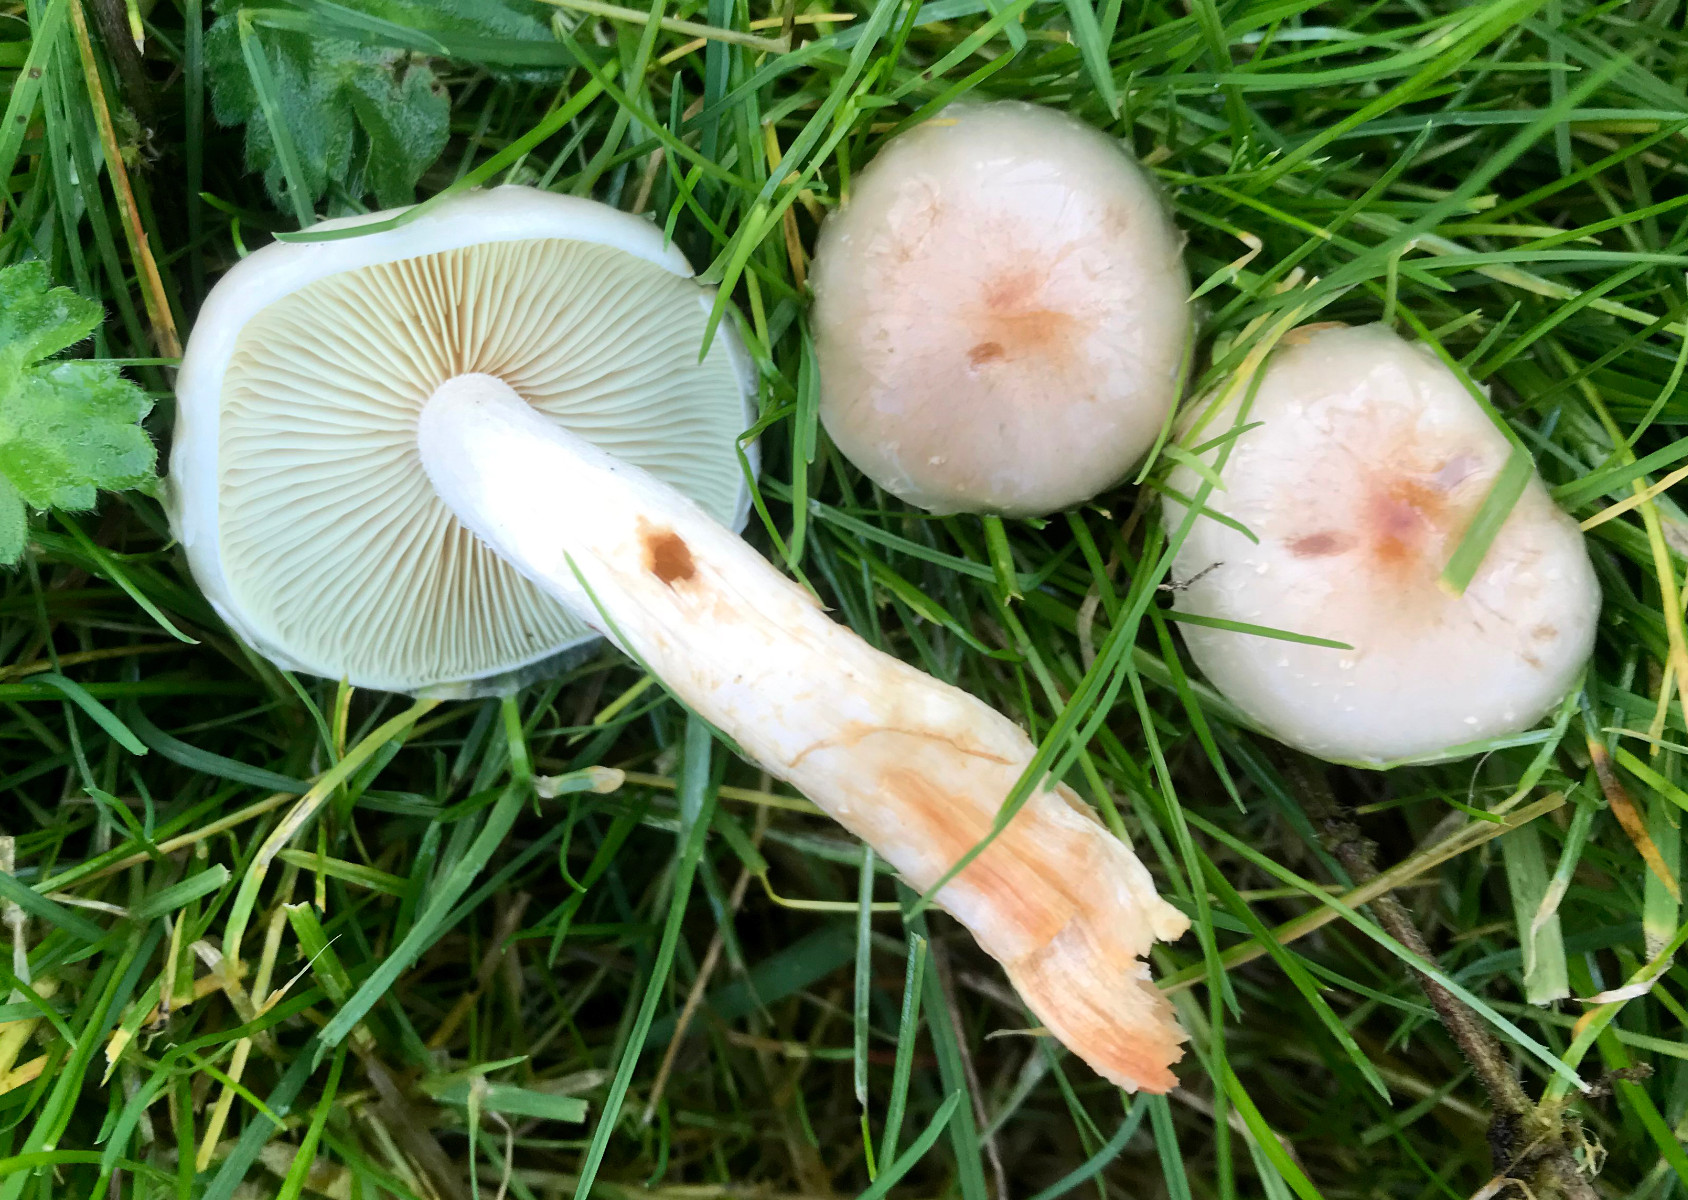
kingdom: Fungi
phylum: Basidiomycota
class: Agaricomycetes
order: Agaricales
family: Strophariaceae
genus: Pholiota
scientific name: Pholiota lenta
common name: løv-skælhat
